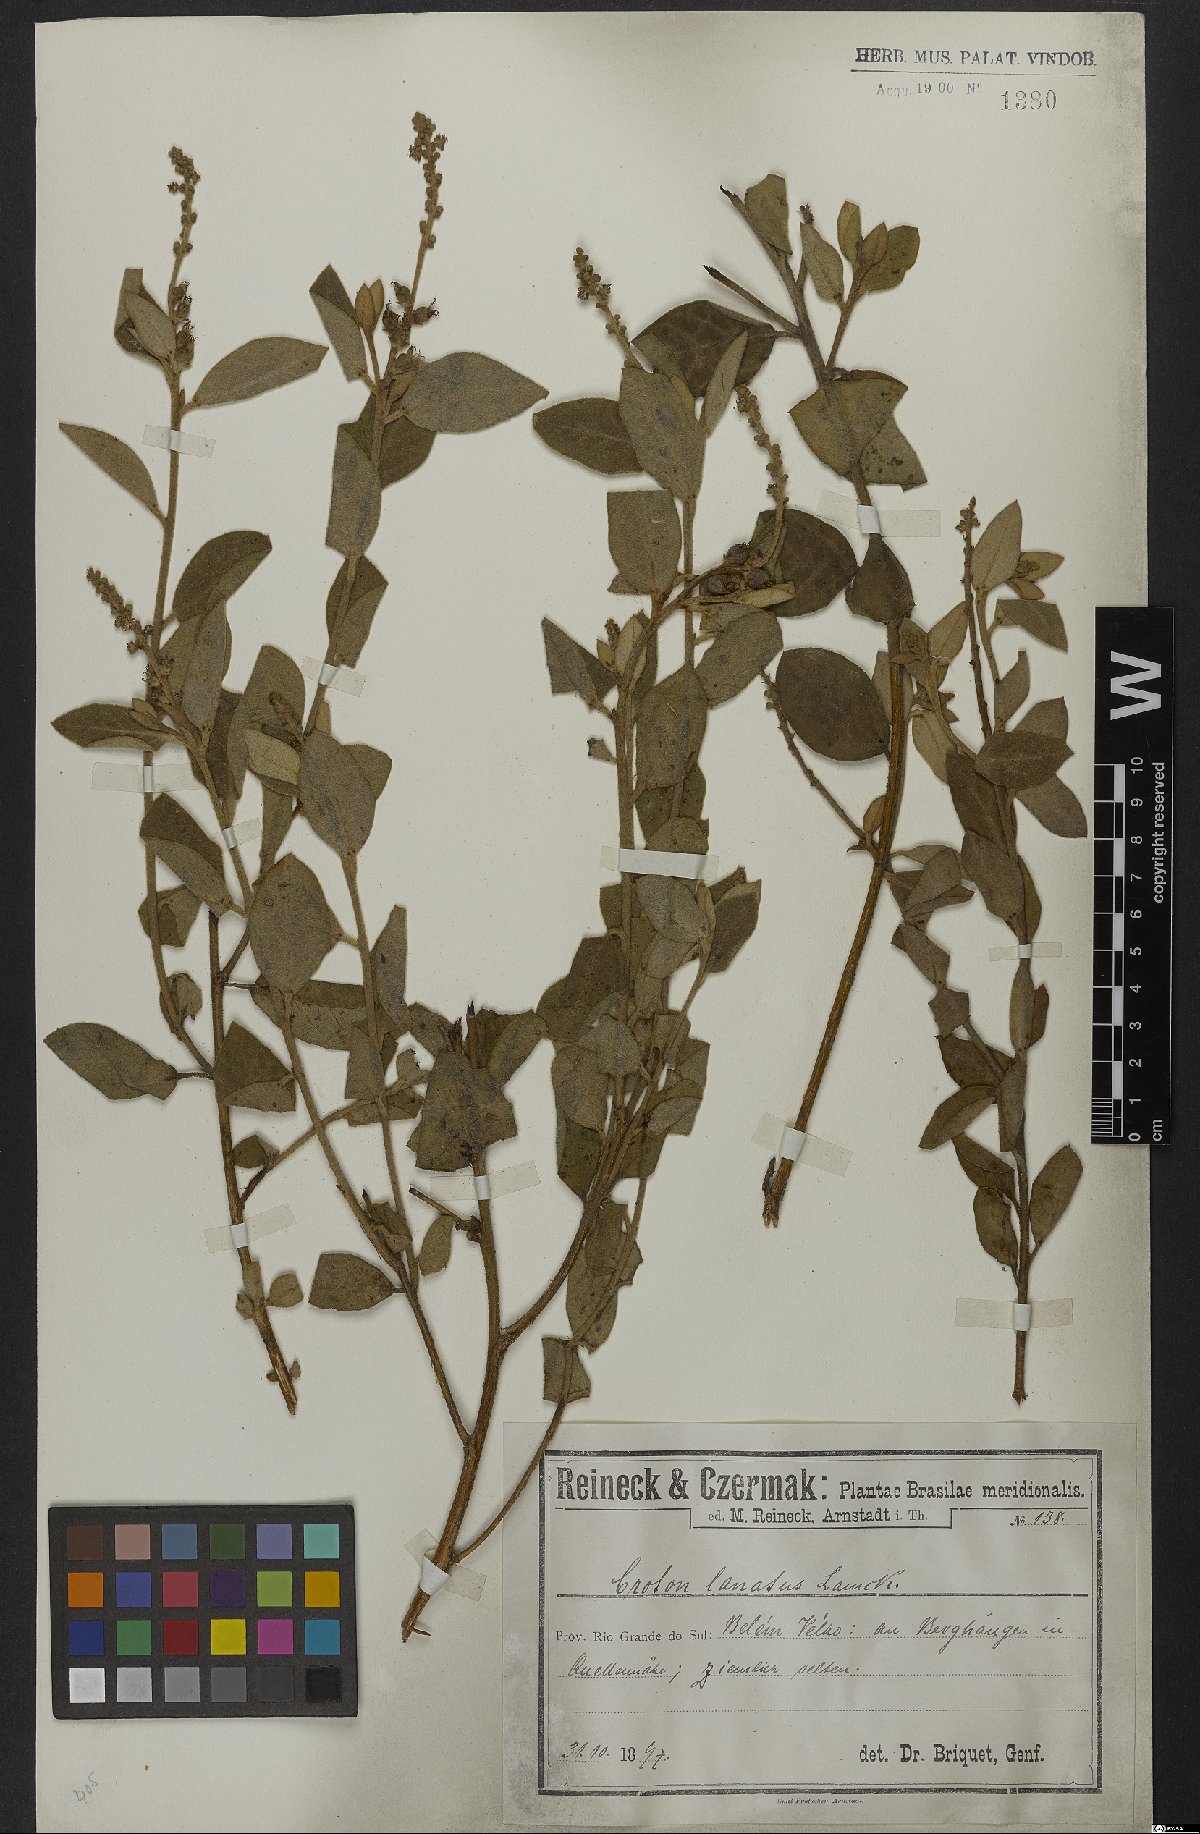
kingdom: Plantae
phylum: Tracheophyta
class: Magnoliopsida
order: Malpighiales
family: Euphorbiaceae
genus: Croton
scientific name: Croton lanatus
